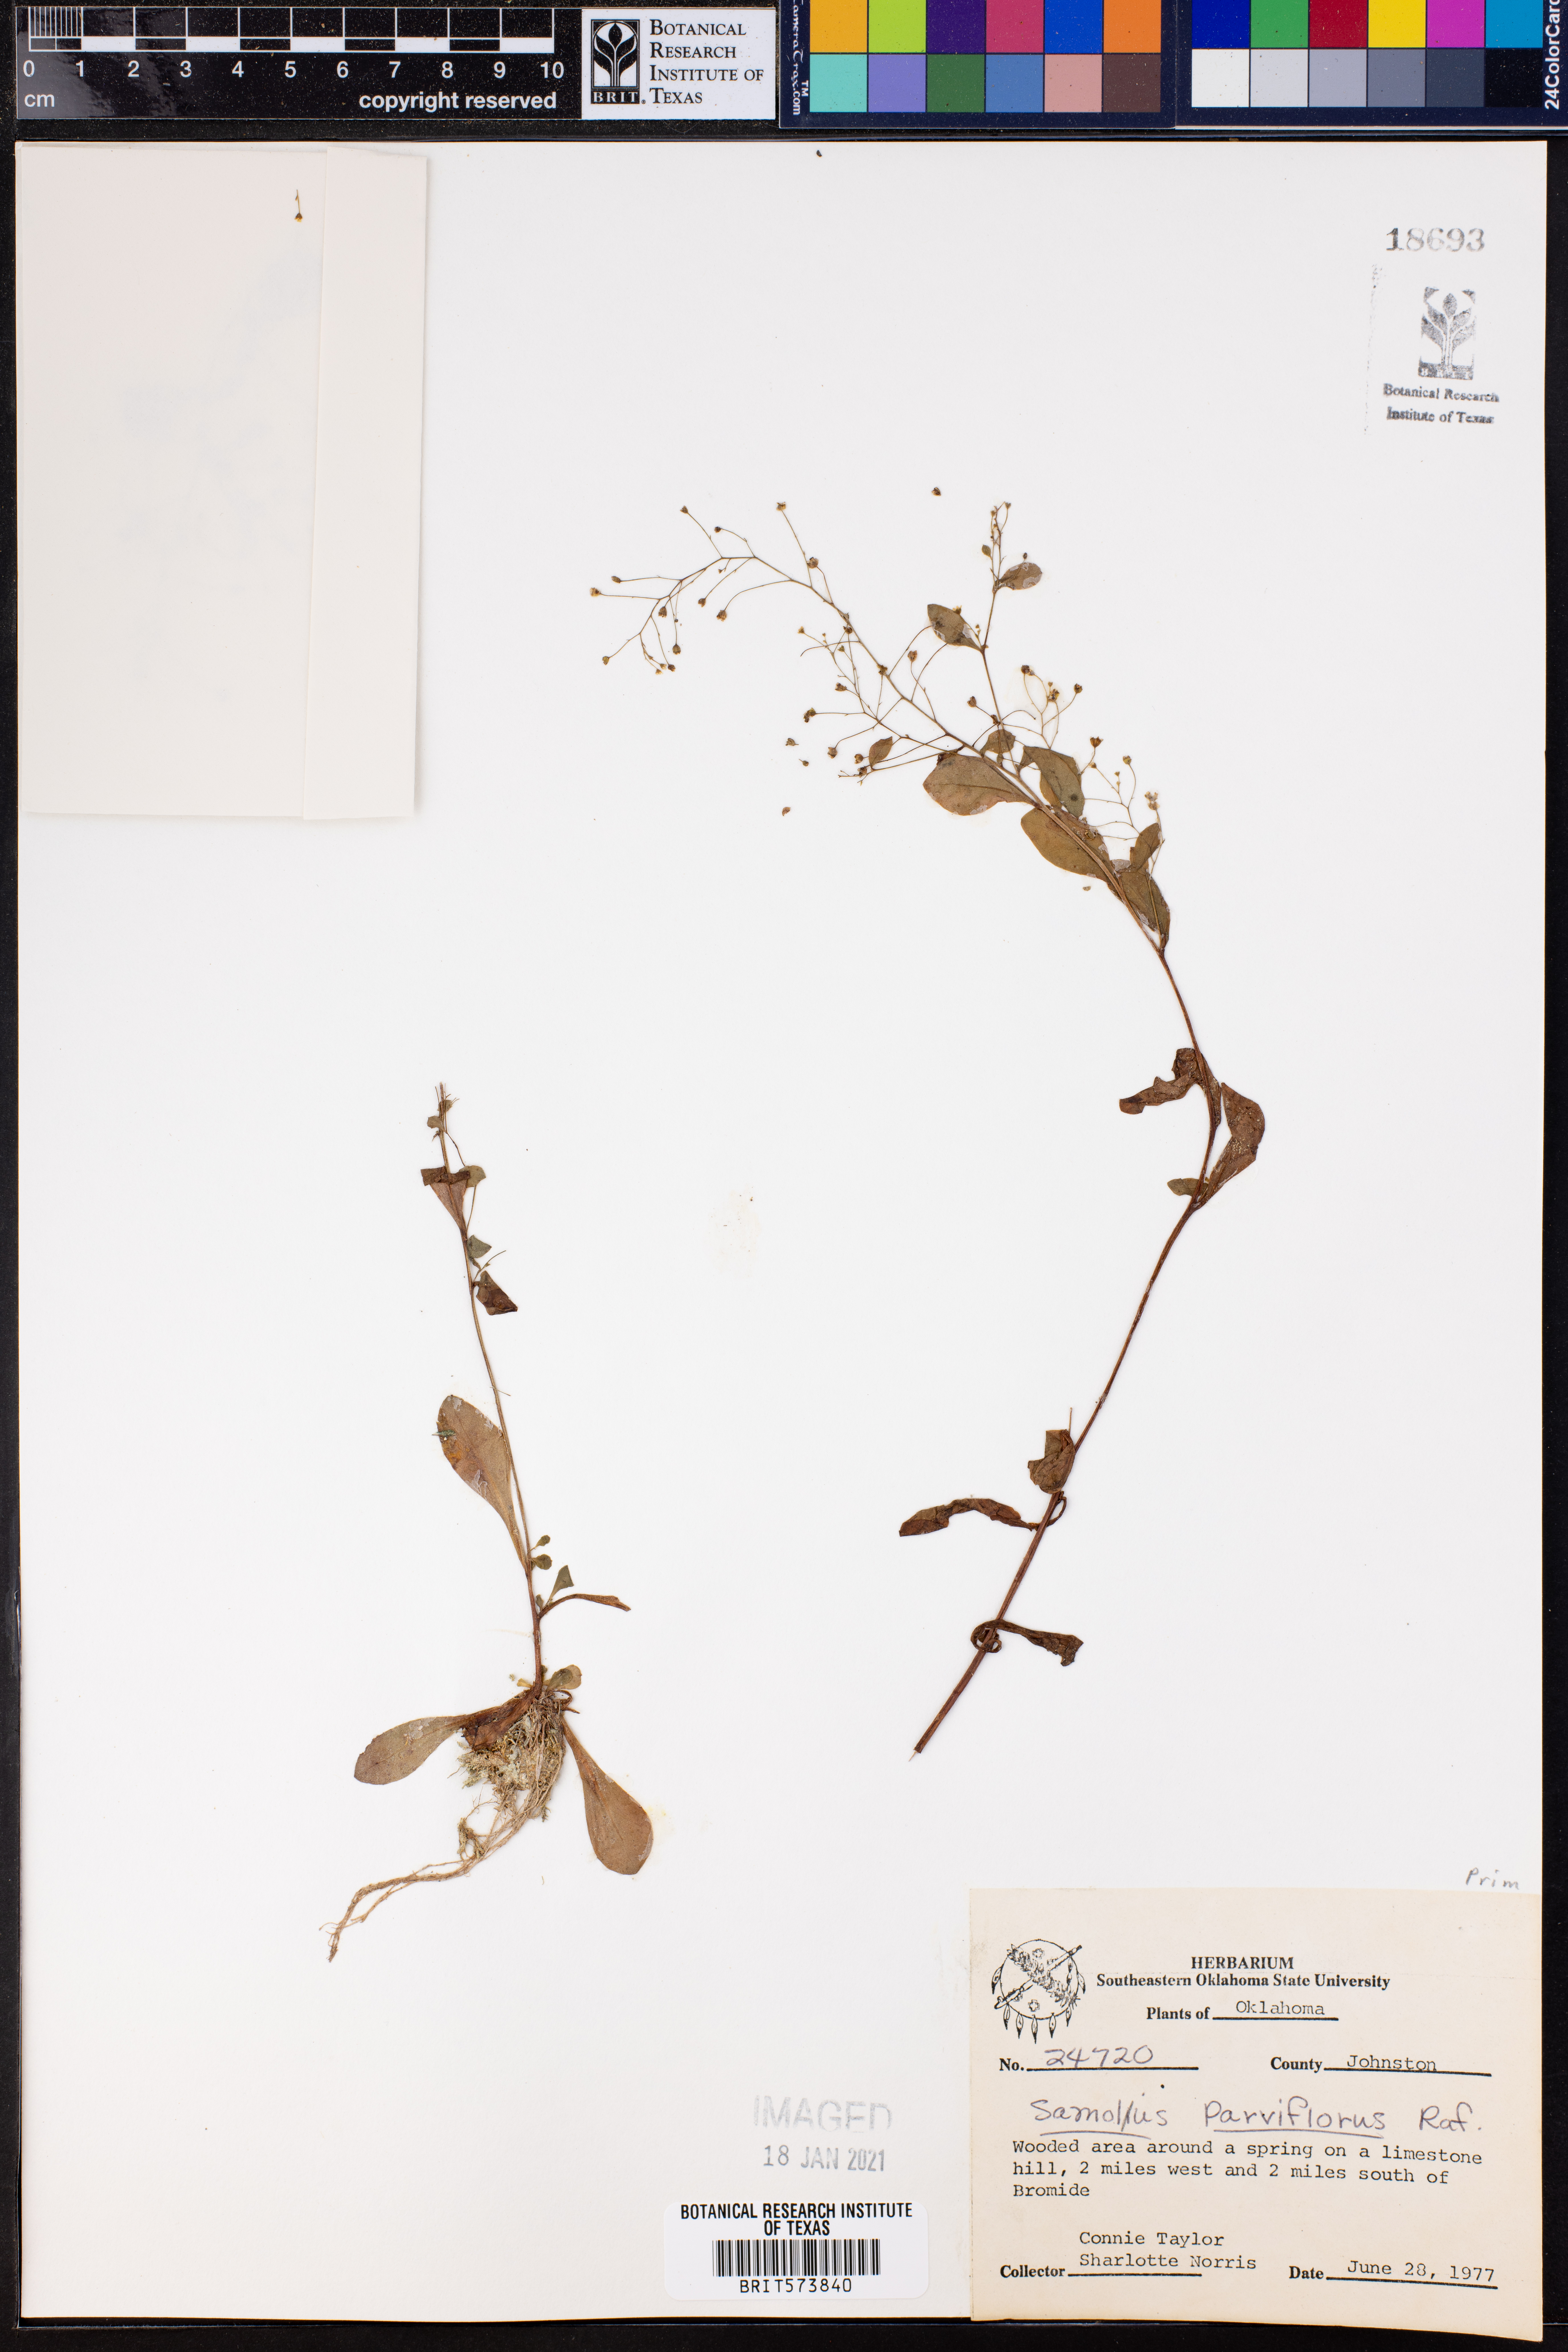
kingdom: Plantae
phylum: Tracheophyta
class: Magnoliopsida
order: Ericales
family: Primulaceae
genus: Samolus
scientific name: Samolus parviflorus
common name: False water pimpernel
